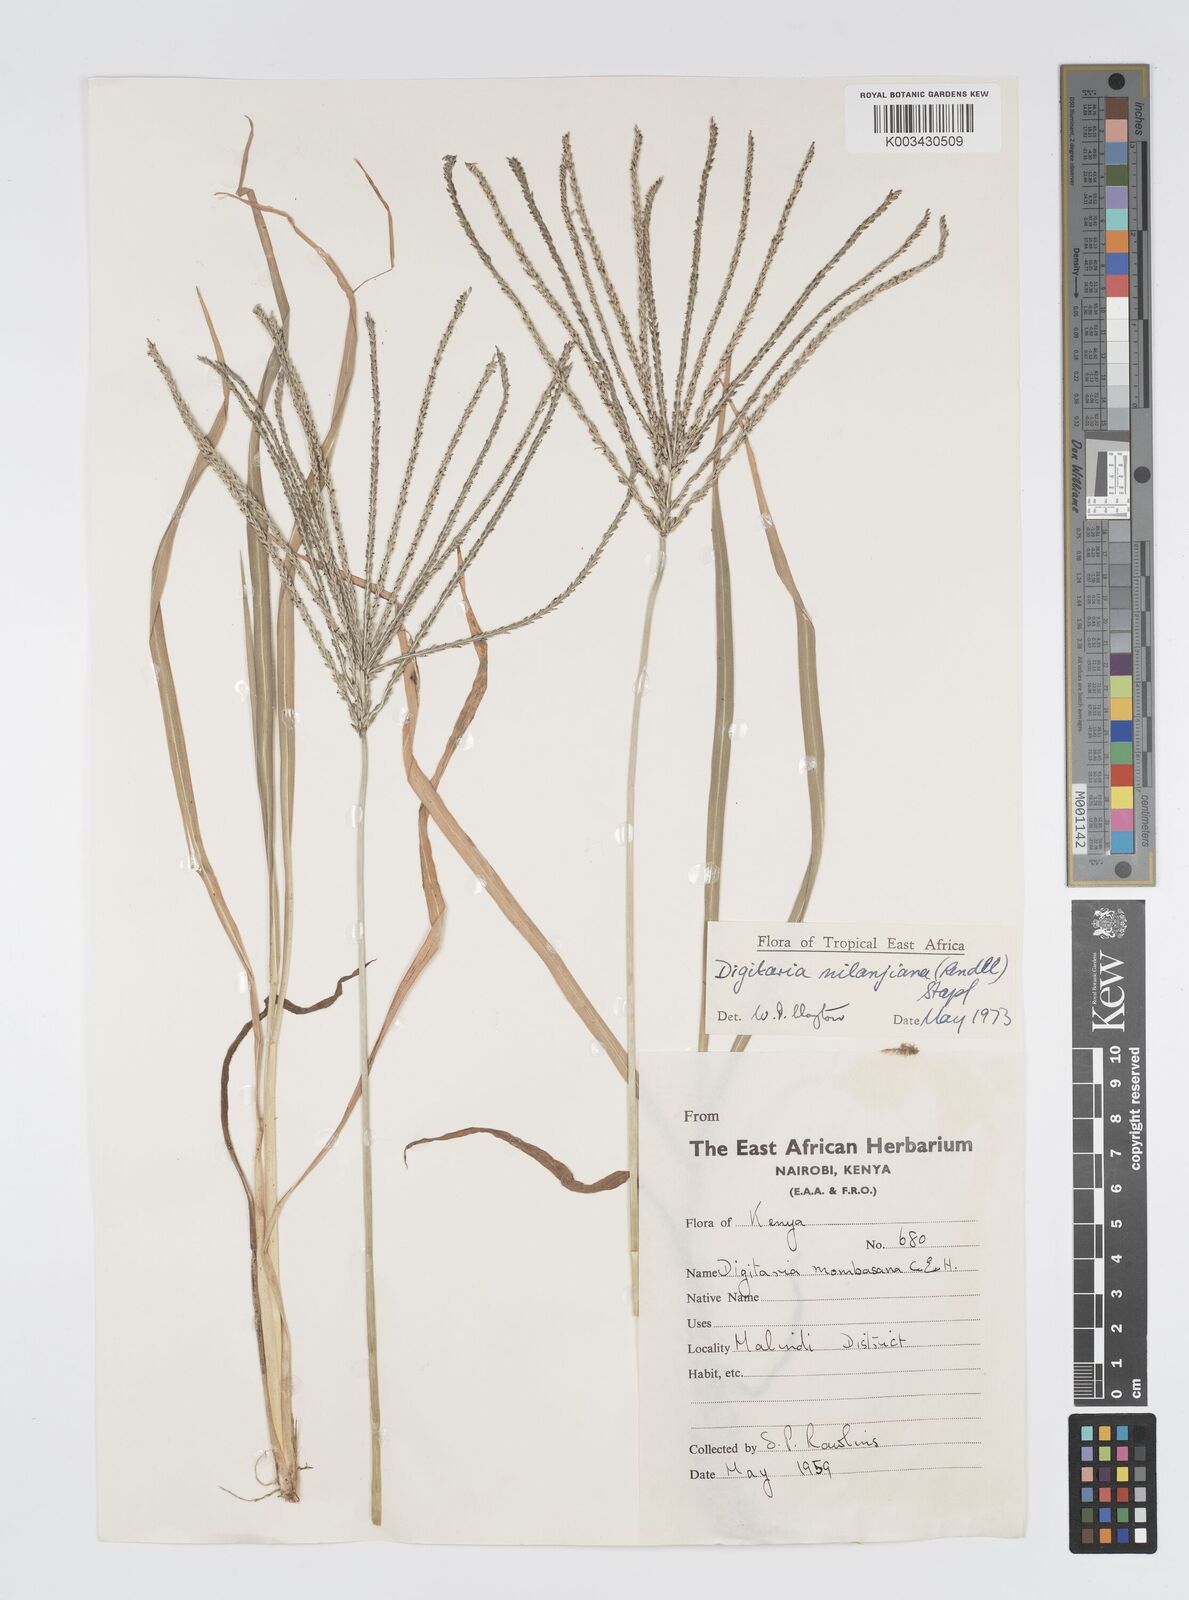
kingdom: Plantae
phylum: Tracheophyta
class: Liliopsida
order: Poales
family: Poaceae
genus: Digitaria
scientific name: Digitaria milanjiana
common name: Madagascar crabgrass
